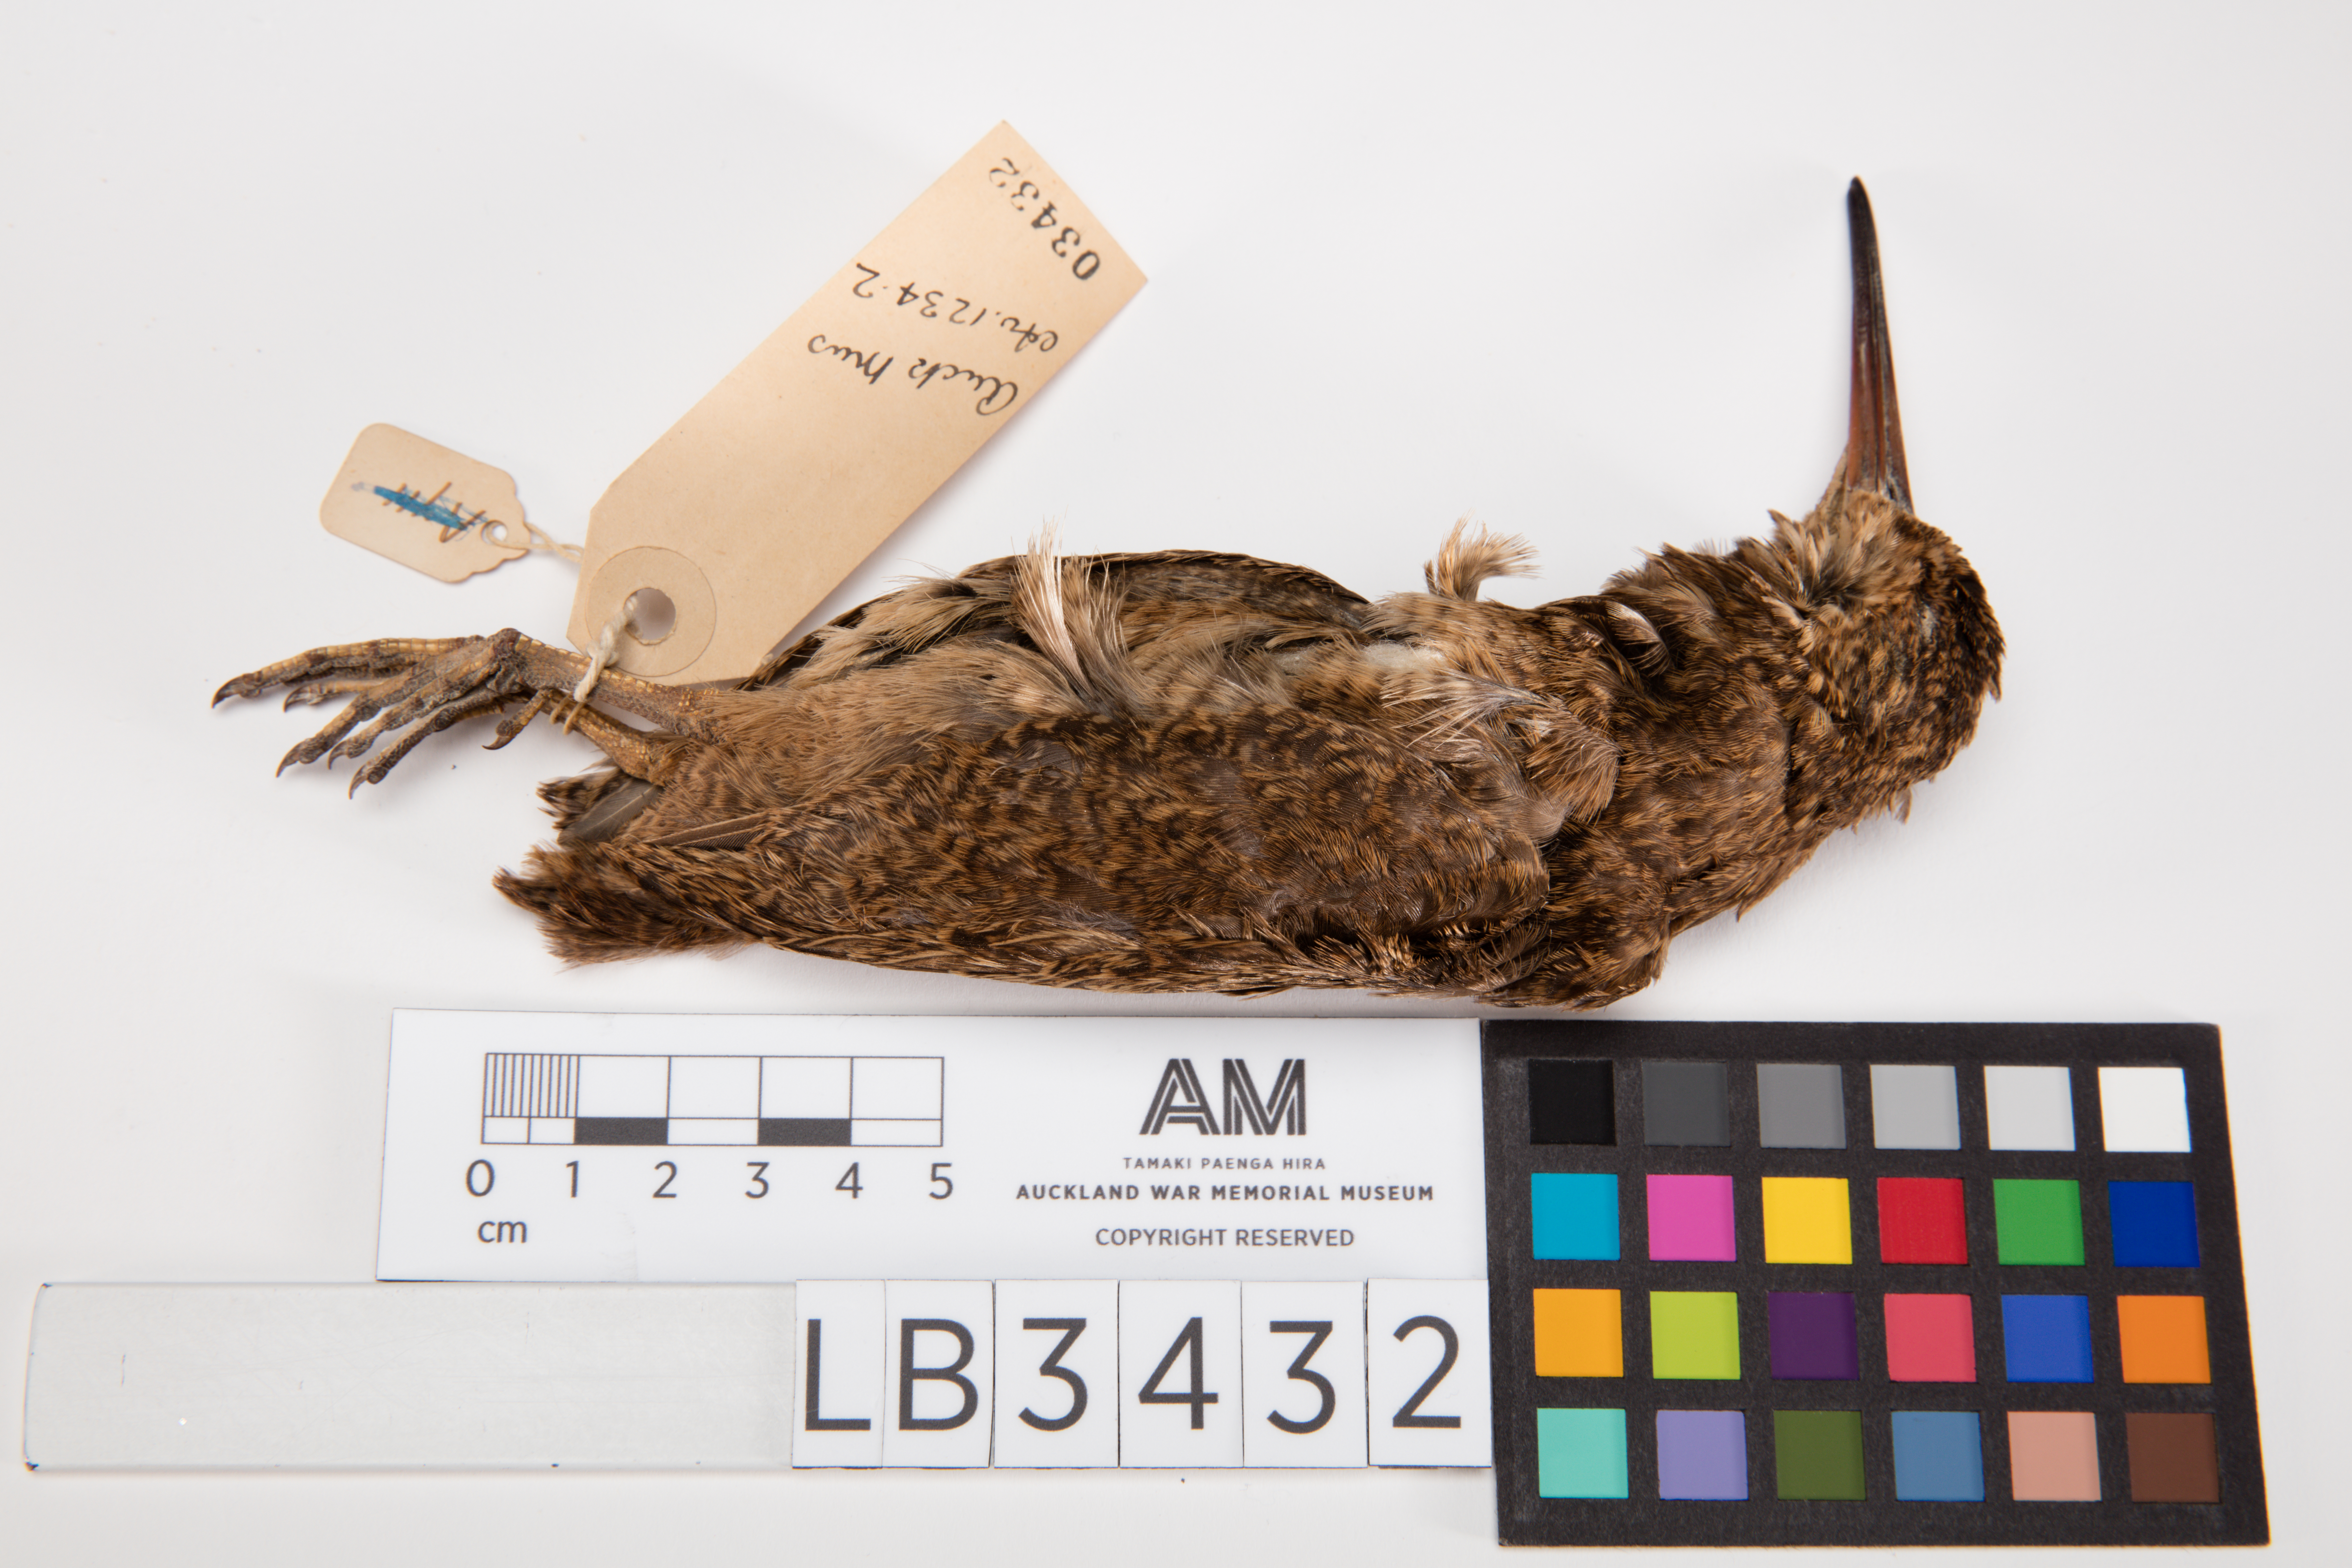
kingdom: Animalia
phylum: Chordata
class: Aves
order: Charadriiformes
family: Scolopacidae
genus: Coenocorypha
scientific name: Coenocorypha huegeli
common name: Snares snipe
